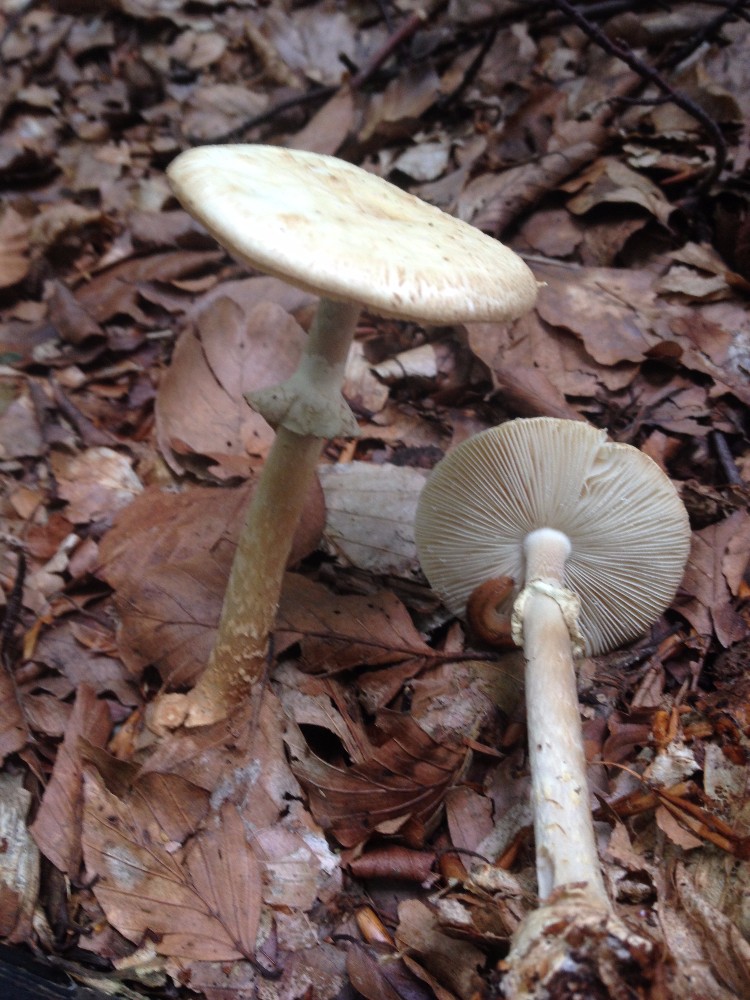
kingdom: Fungi
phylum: Basidiomycota
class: Agaricomycetes
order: Agaricales
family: Amanitaceae
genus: Amanita
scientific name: Amanita citrina
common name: kugleknoldet fluesvamp
